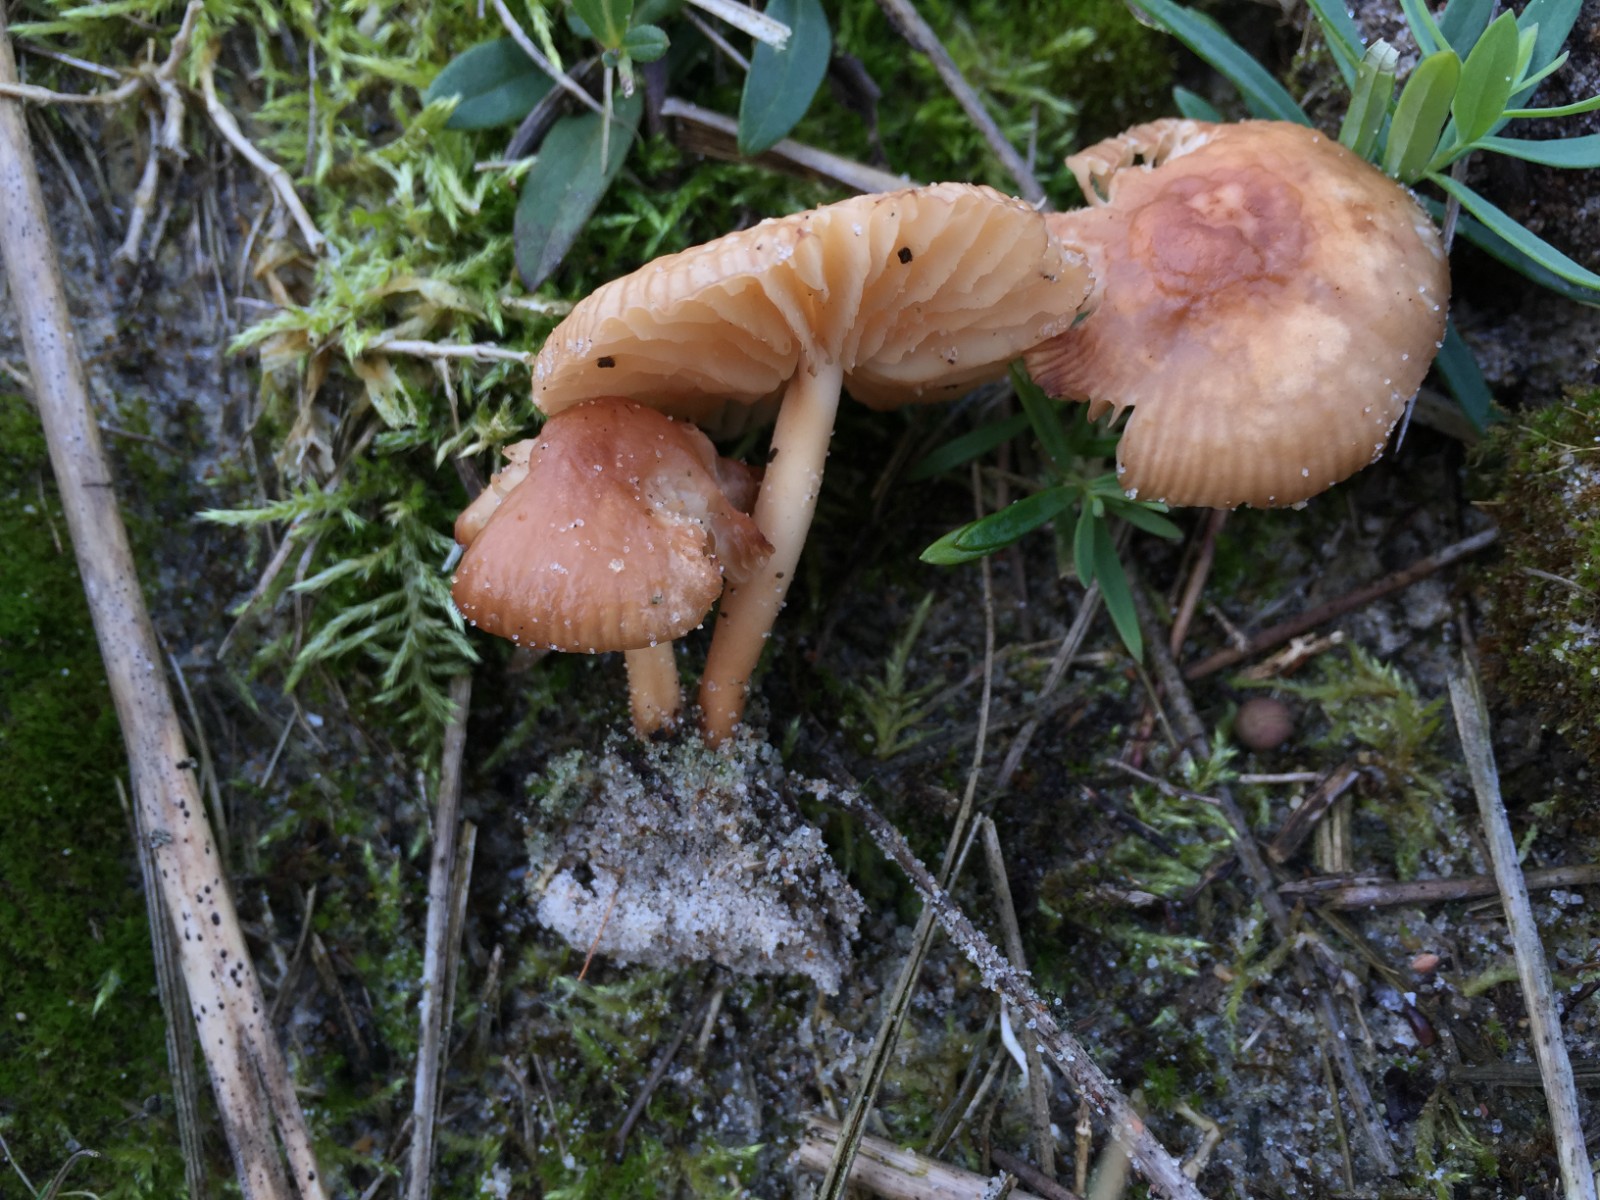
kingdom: Fungi
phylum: Basidiomycota
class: Agaricomycetes
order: Agaricales
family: Marasmiaceae
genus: Marasmius
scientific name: Marasmius oreades
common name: elledans-bruskhat
